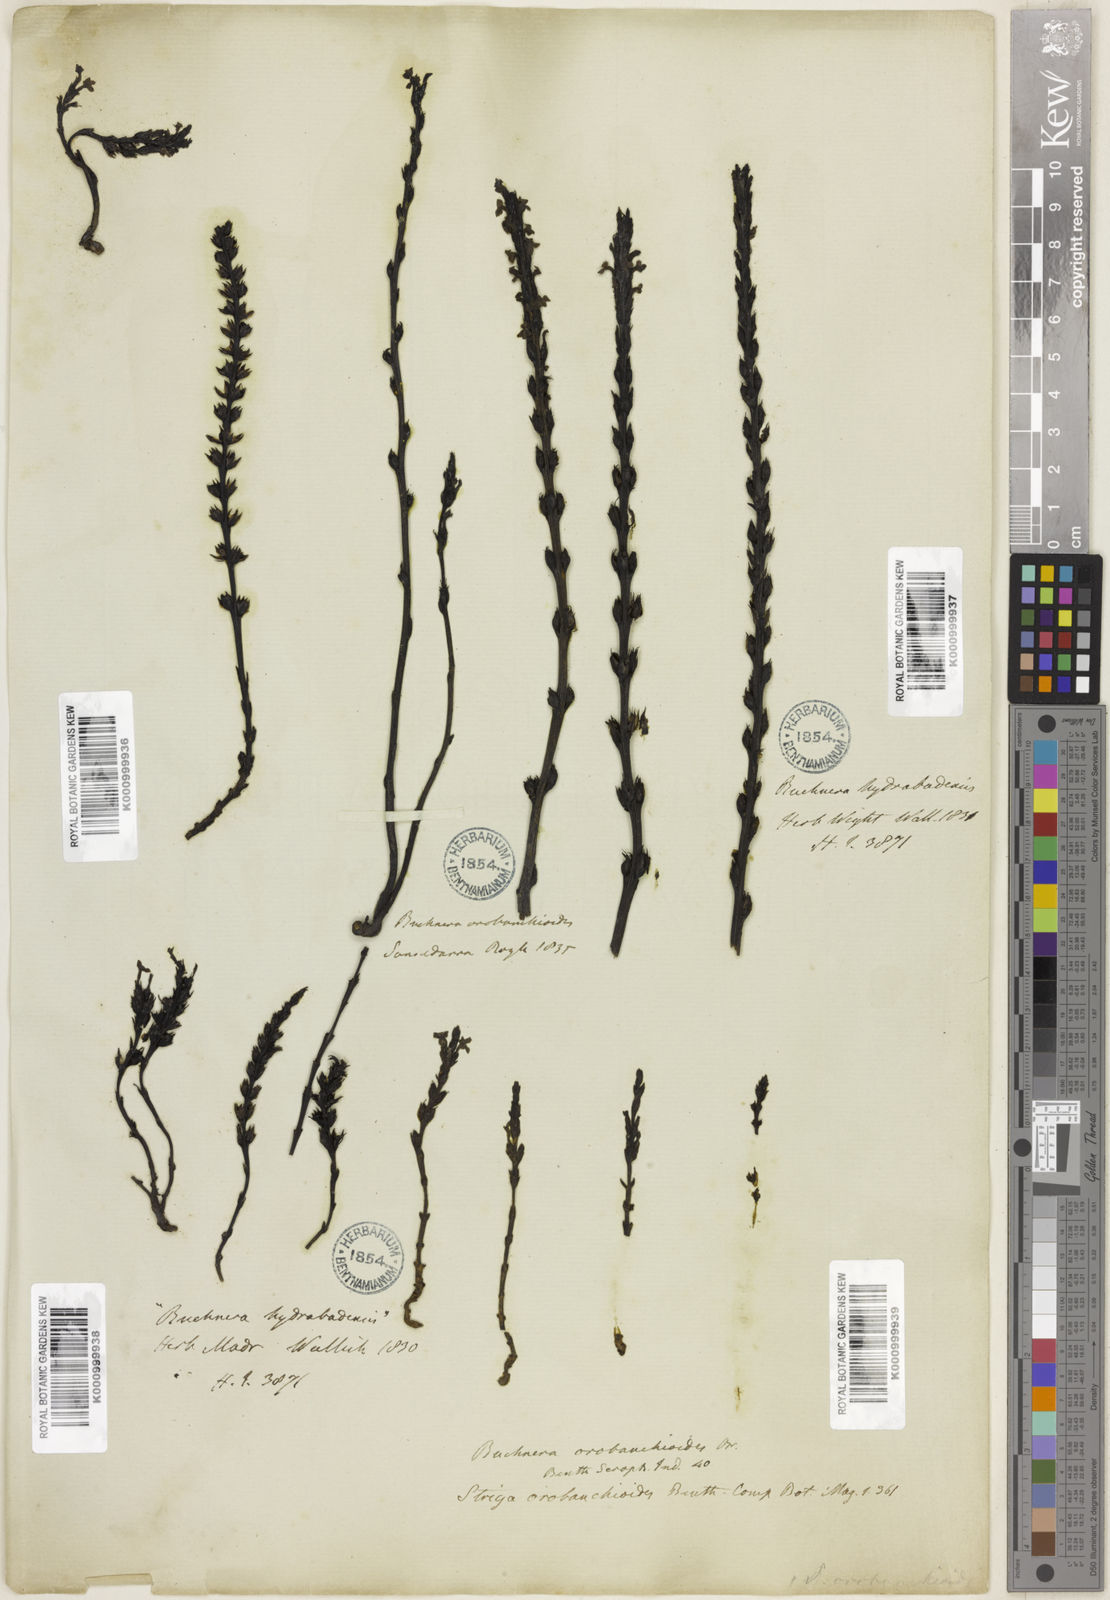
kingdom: Plantae
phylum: Tracheophyta
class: Magnoliopsida
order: Lamiales
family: Orobanchaceae
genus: Striga
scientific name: Striga barthlottii
